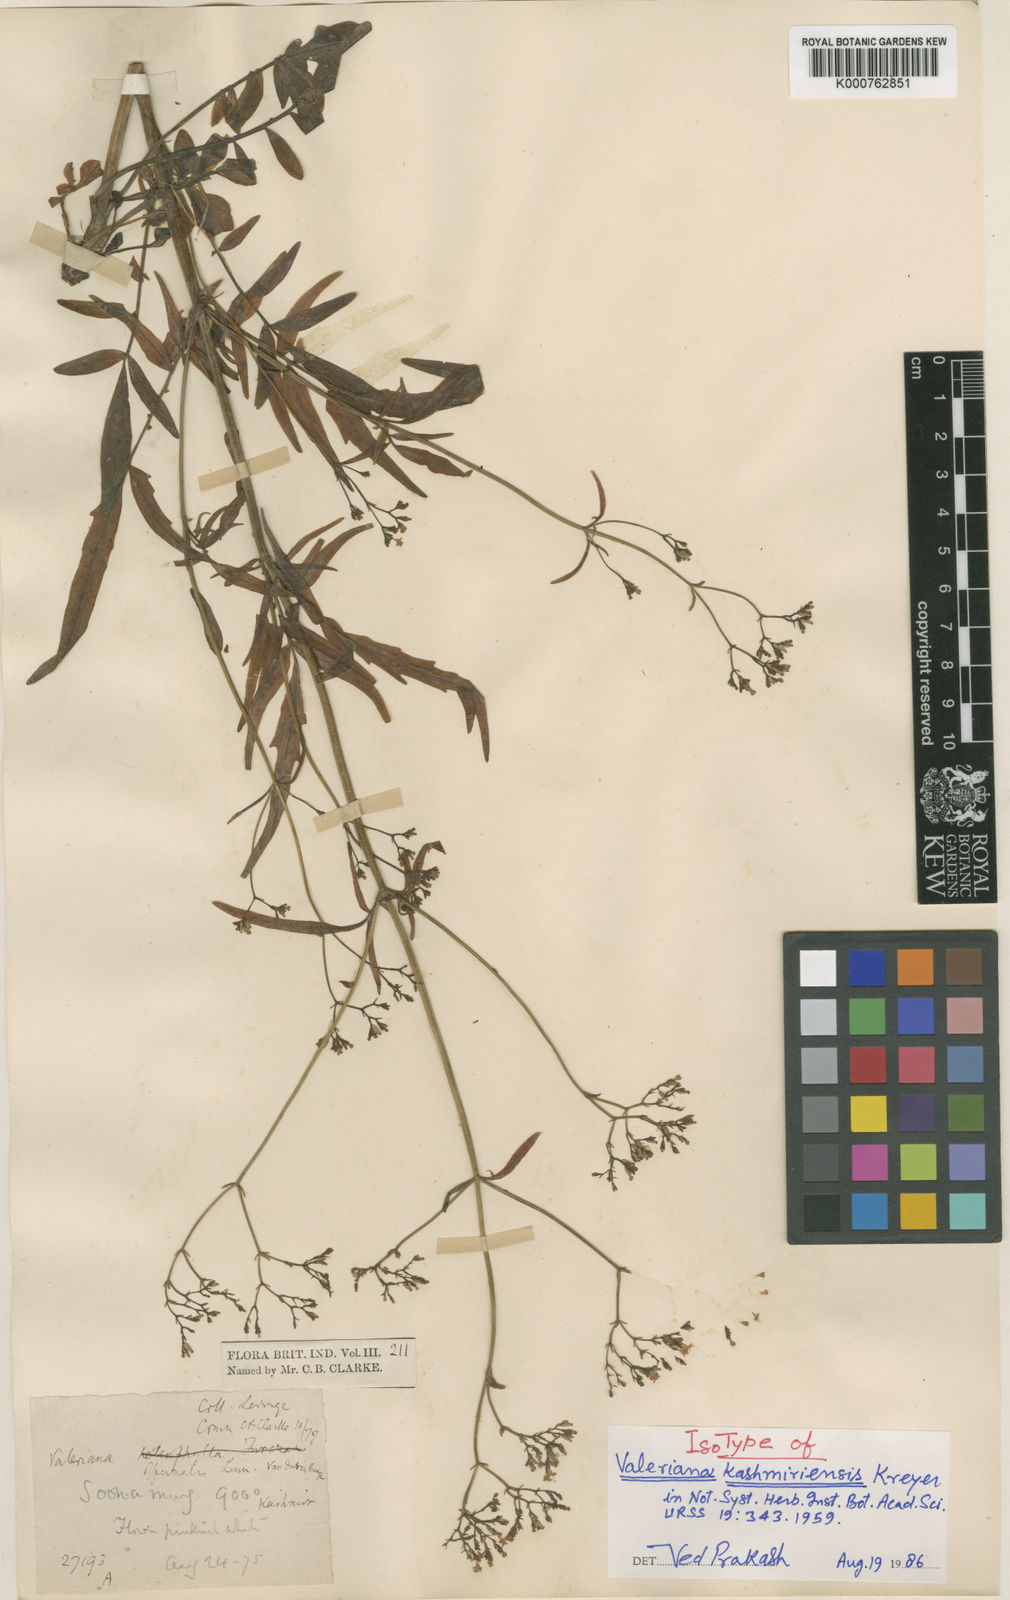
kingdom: Plantae
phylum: Tracheophyta
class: Magnoliopsida
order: Dipsacales
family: Caprifoliaceae
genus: Valeriana
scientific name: Valeriana officinalis
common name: Common valerian
